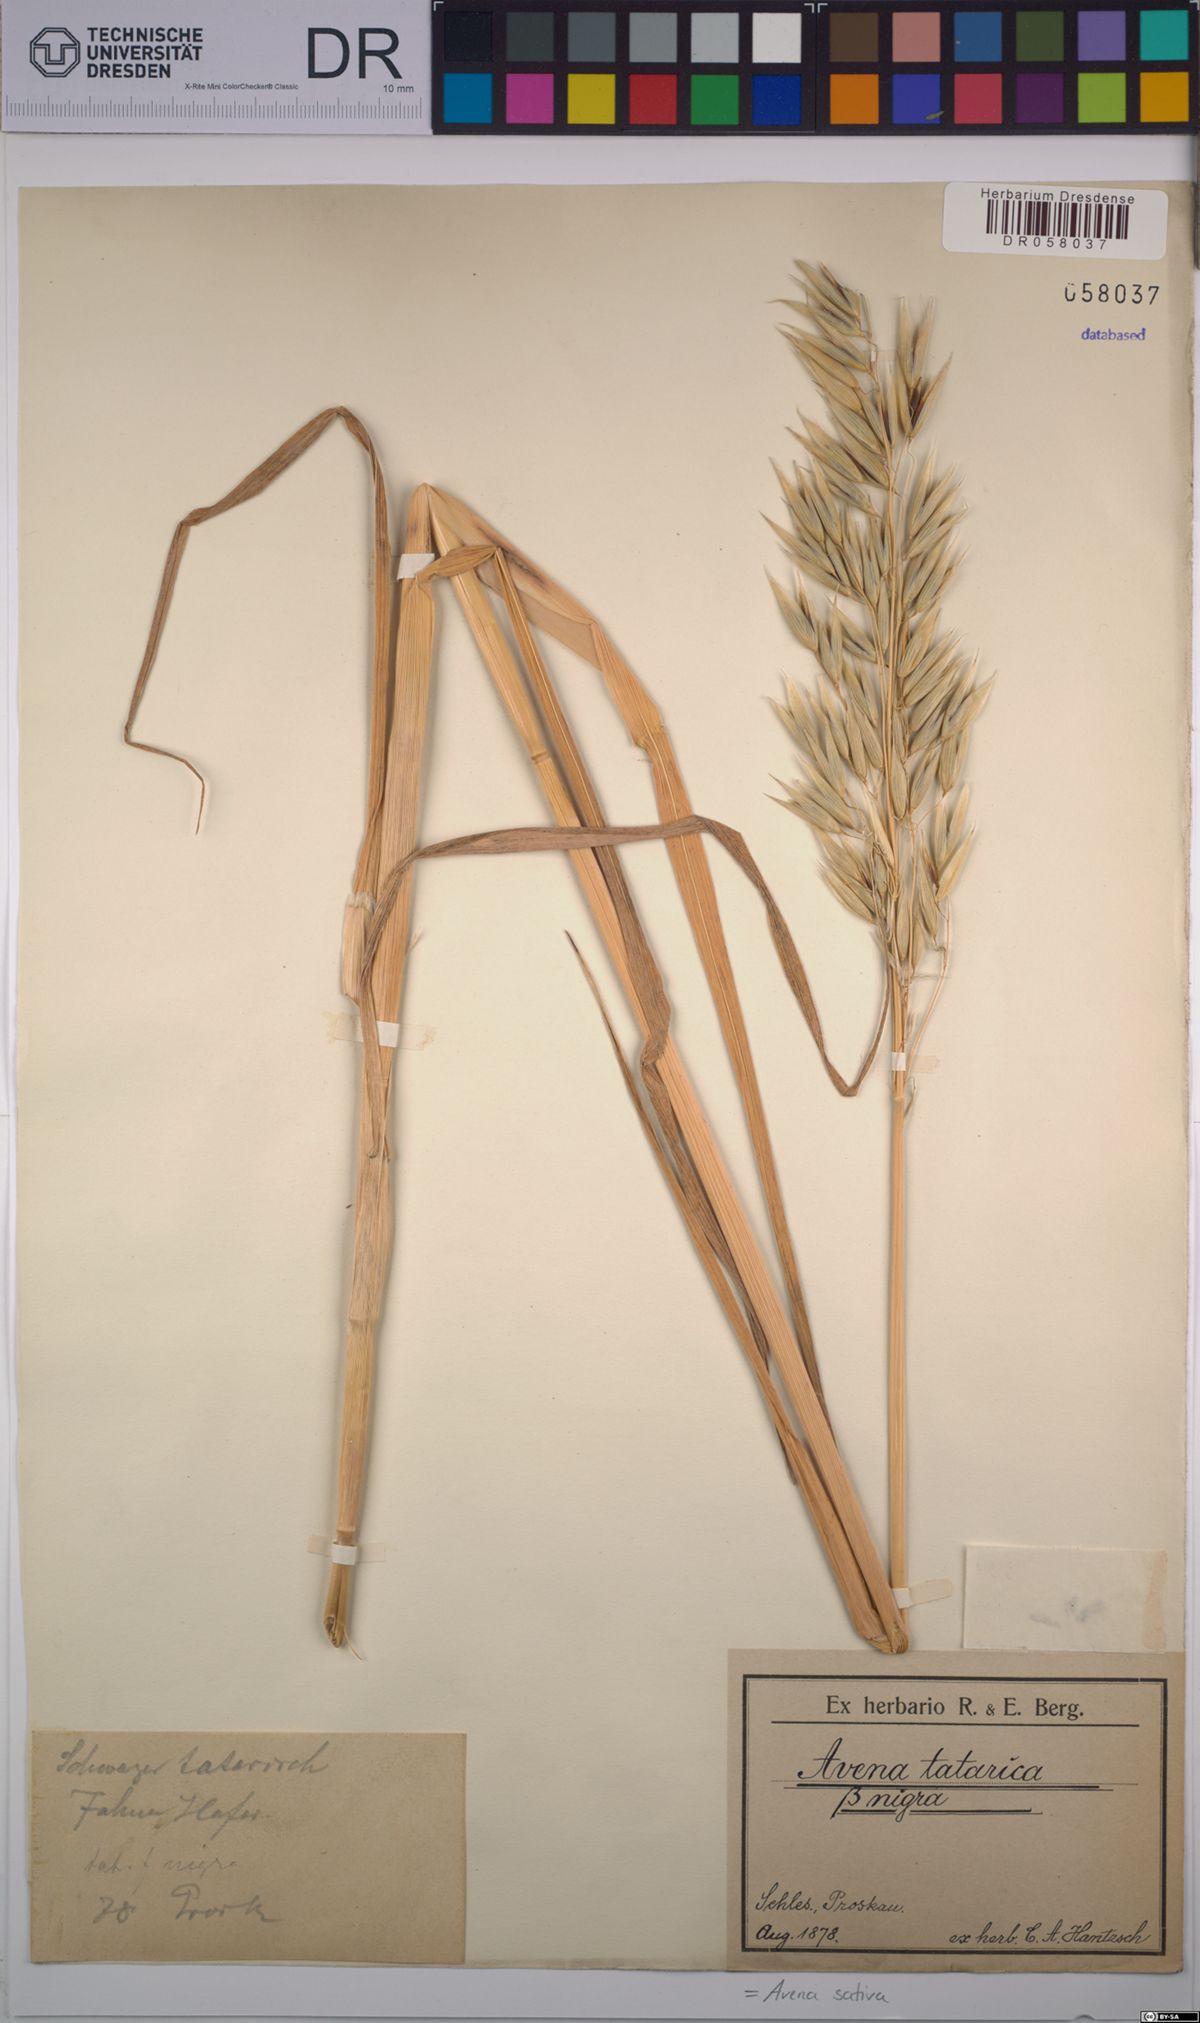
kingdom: Plantae
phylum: Tracheophyta
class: Liliopsida
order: Poales
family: Poaceae
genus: Avena
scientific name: Avena sativa
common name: Oat
